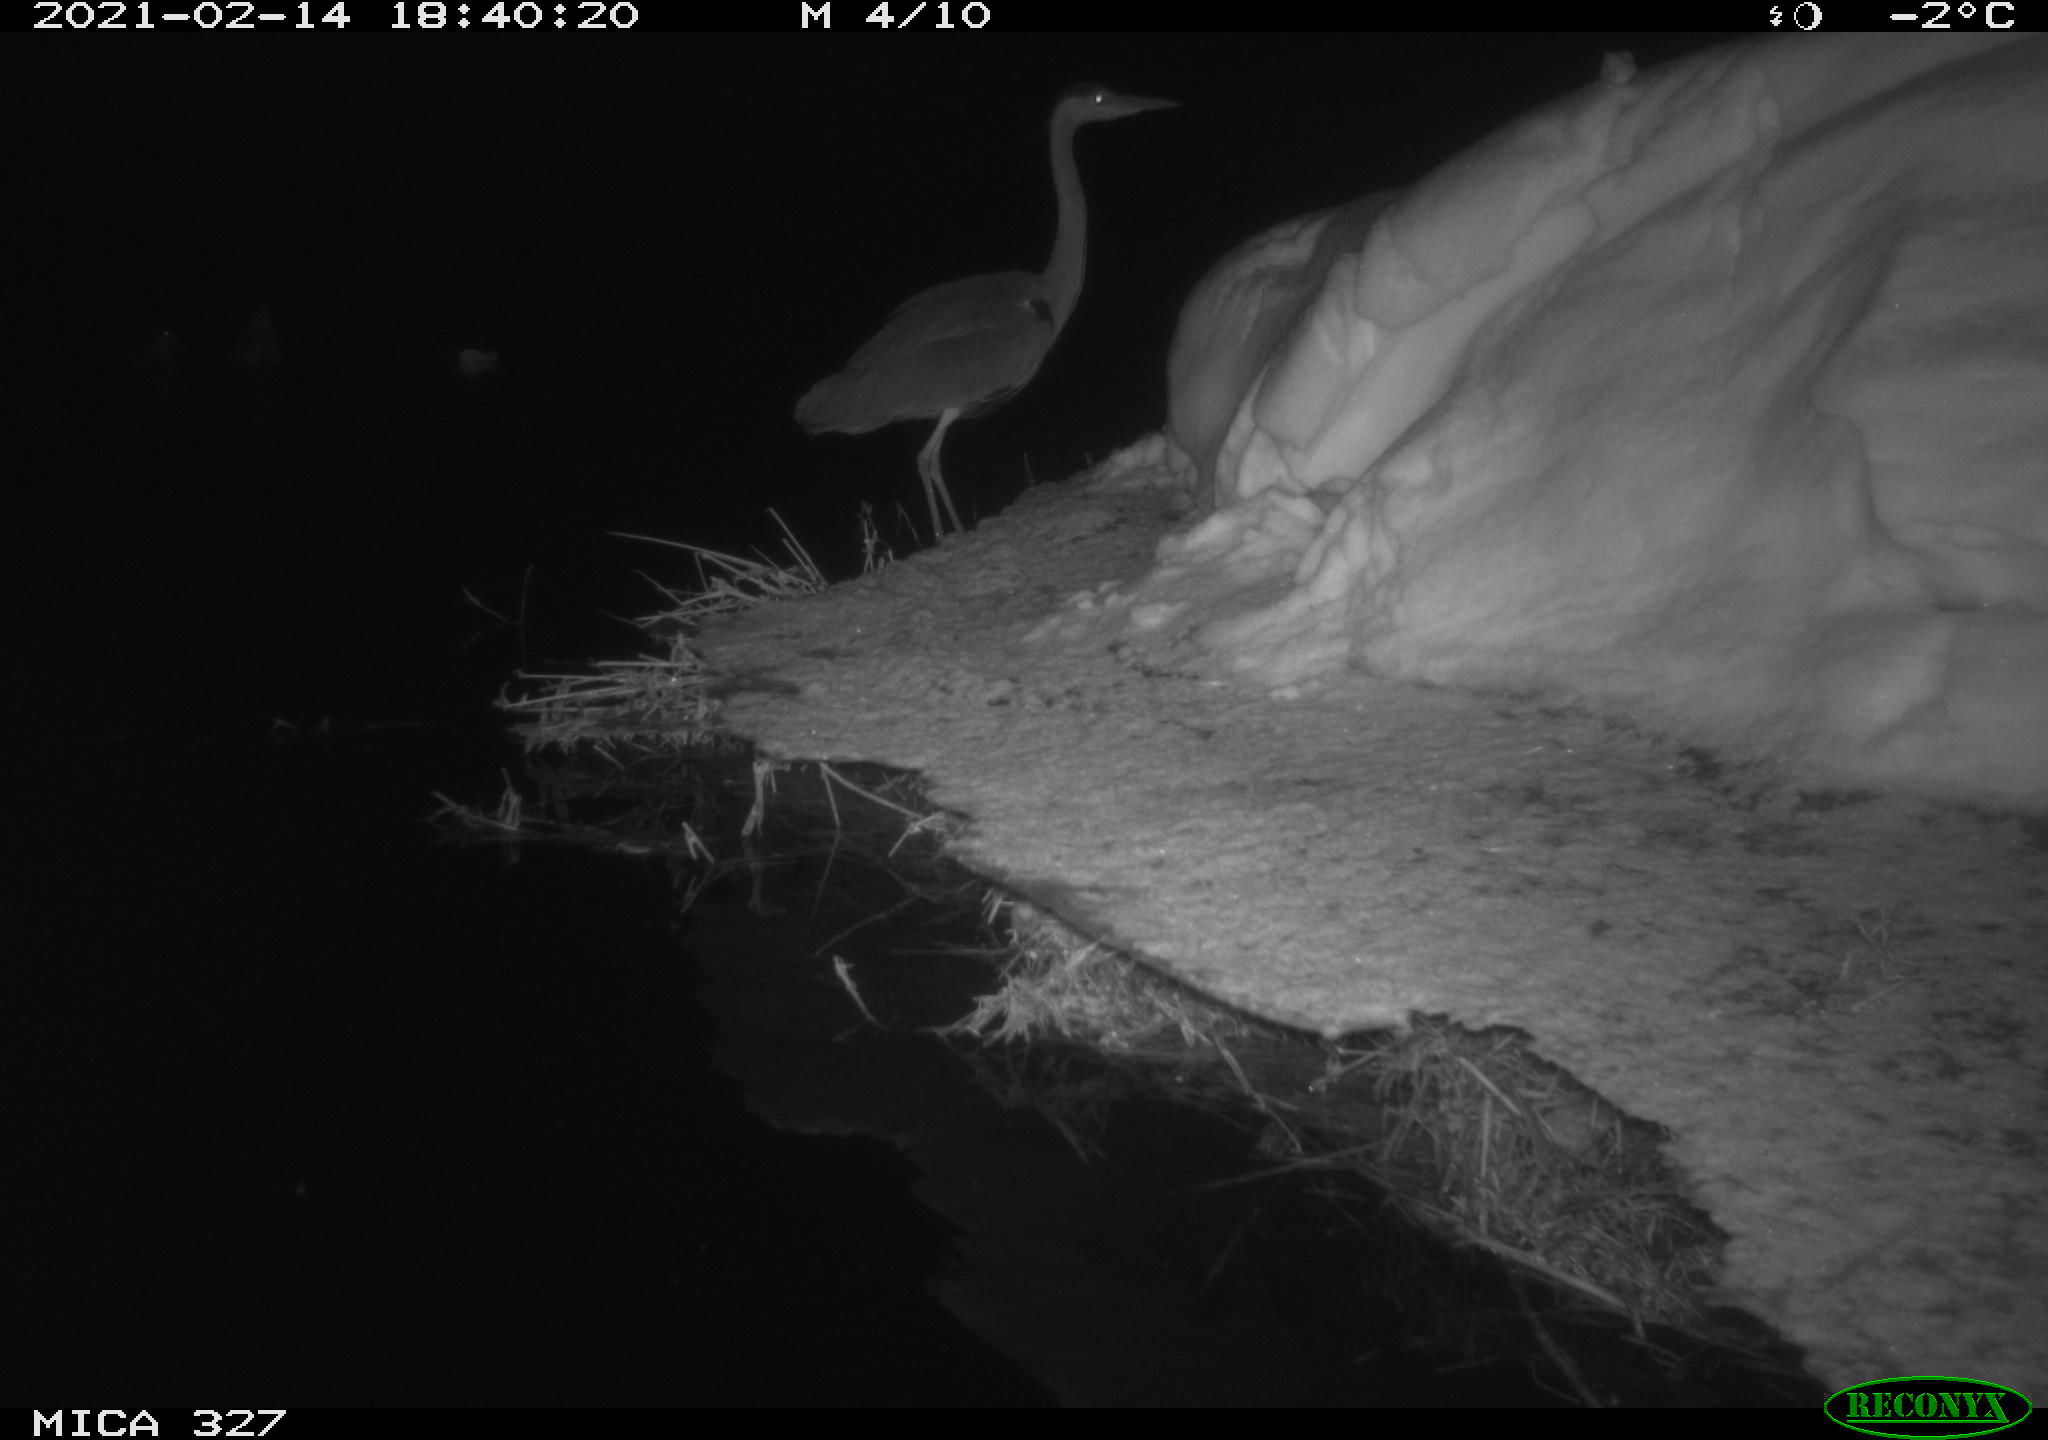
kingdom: Animalia
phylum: Chordata
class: Aves
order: Pelecaniformes
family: Ardeidae
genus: Ardea
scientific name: Ardea cinerea
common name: Grey heron
